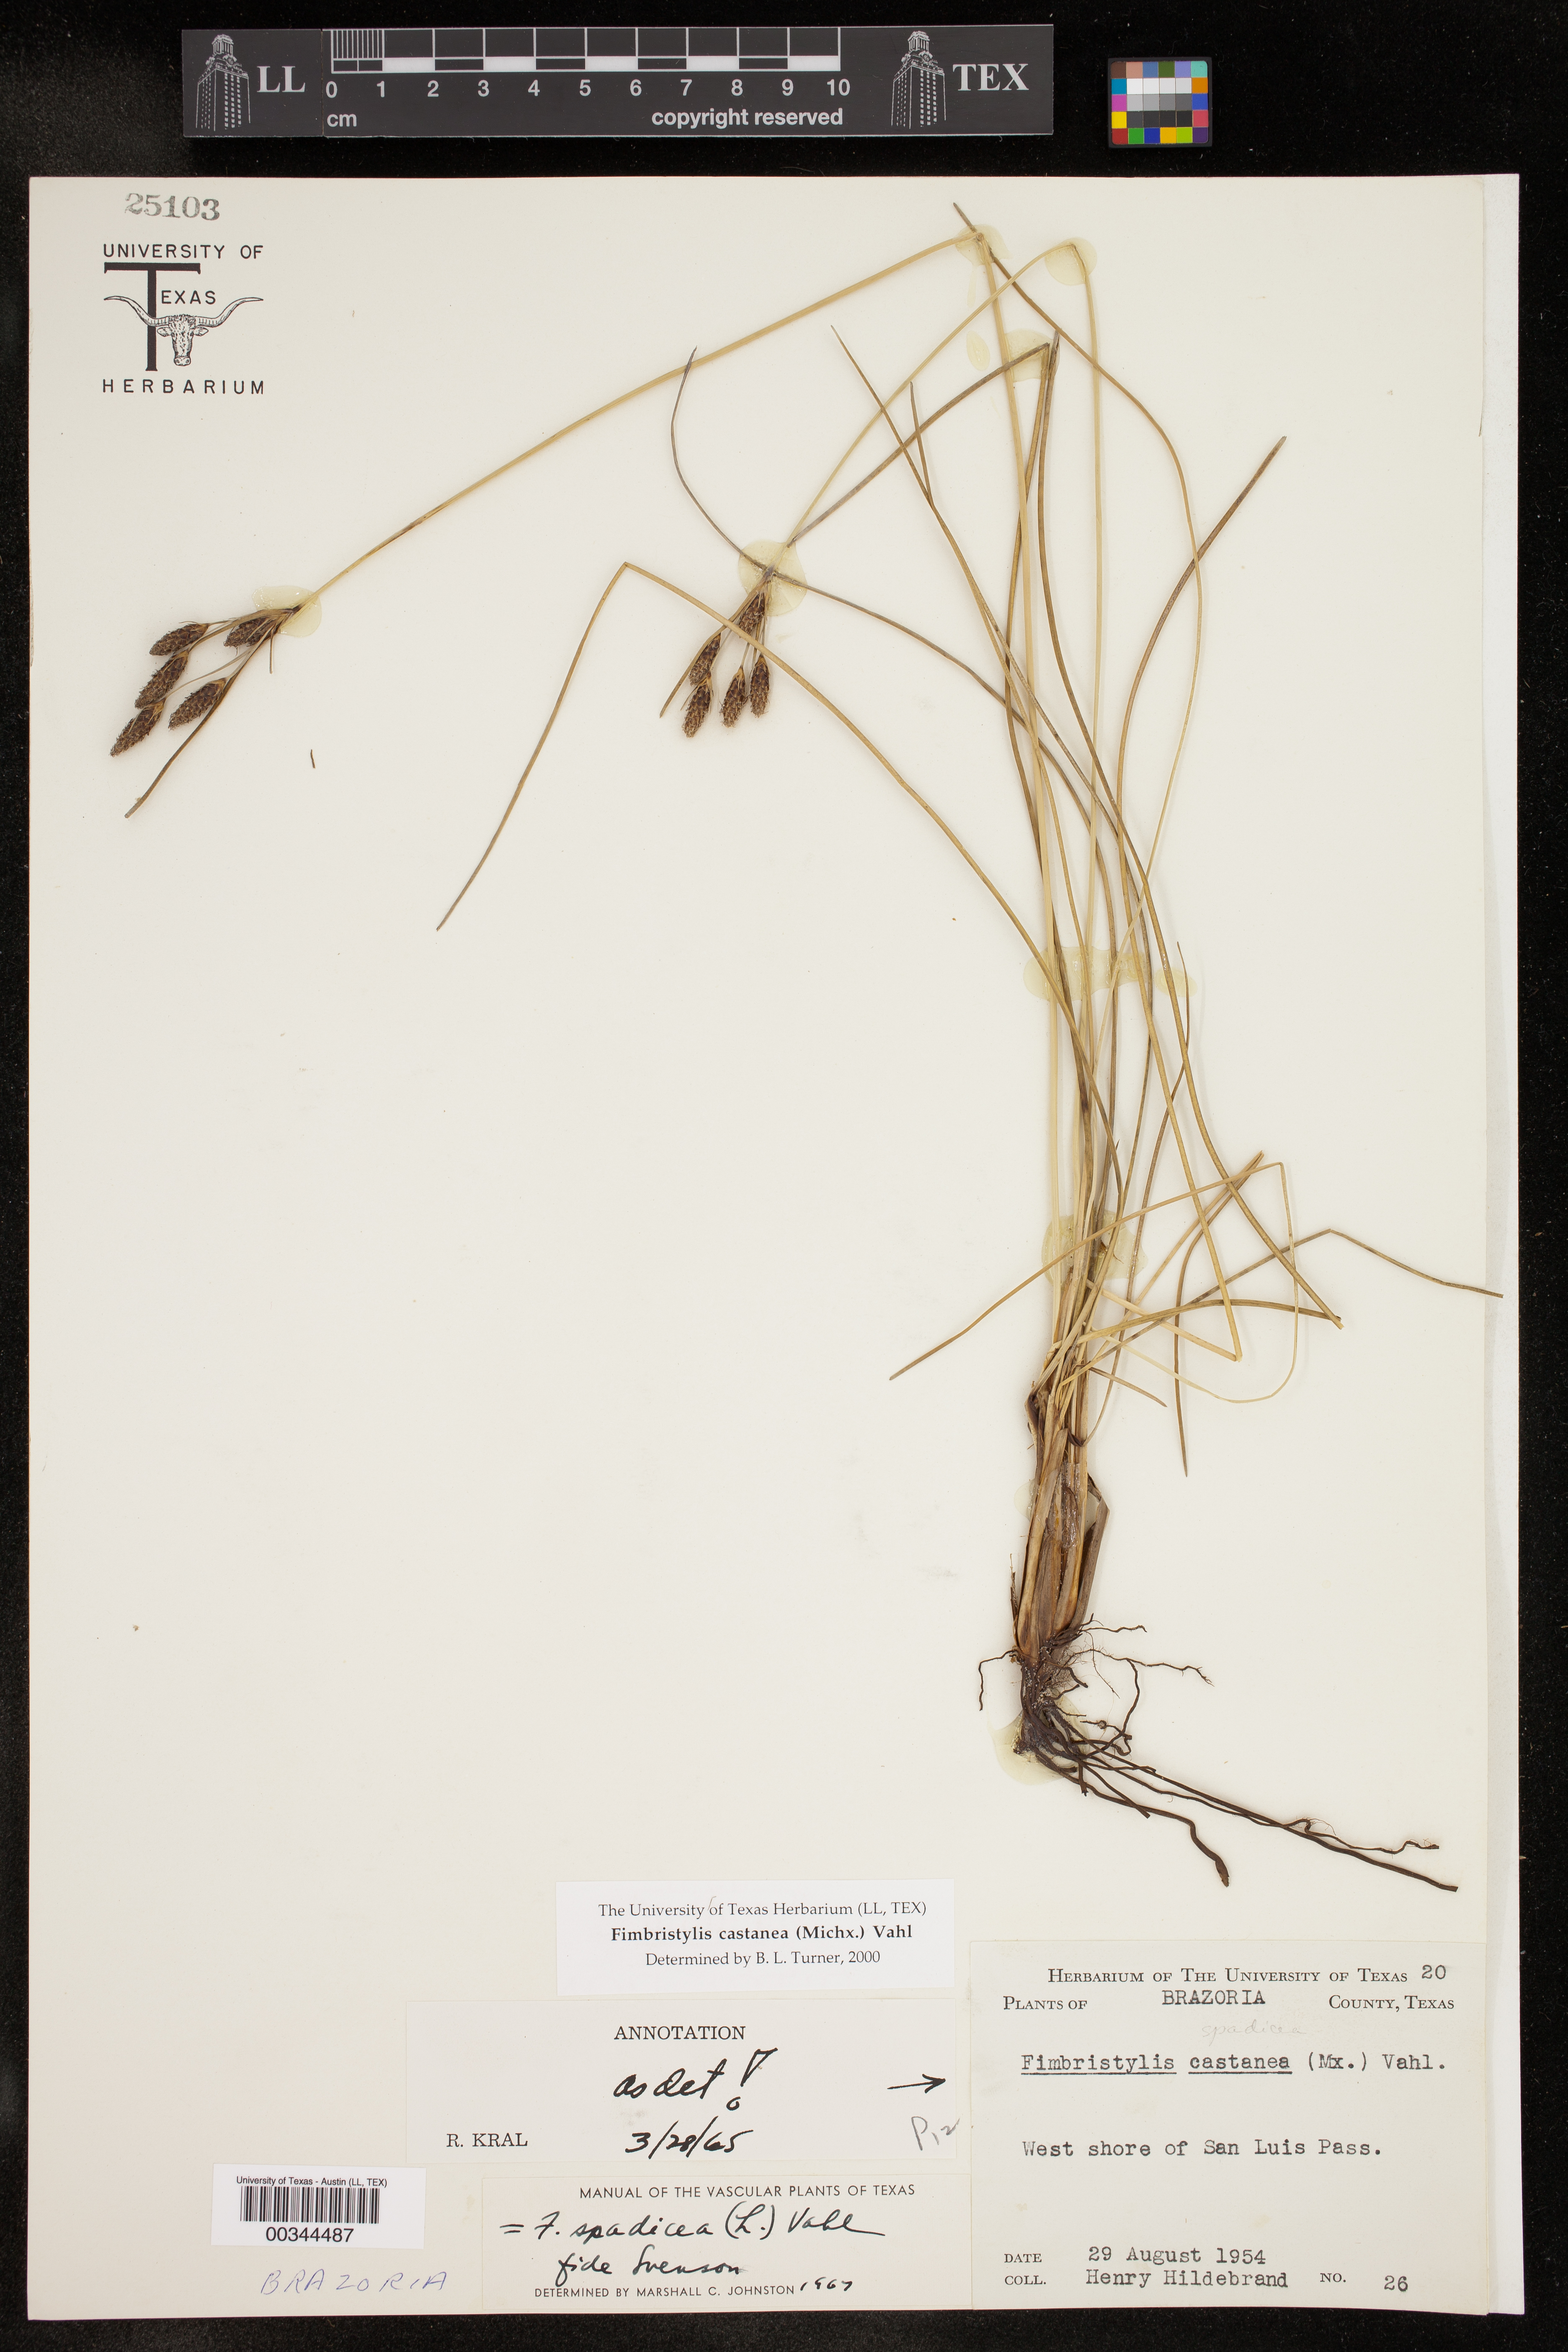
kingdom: Plantae
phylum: Tracheophyta
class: Liliopsida
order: Poales
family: Cyperaceae
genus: Fimbristylis
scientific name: Fimbristylis spadicea
